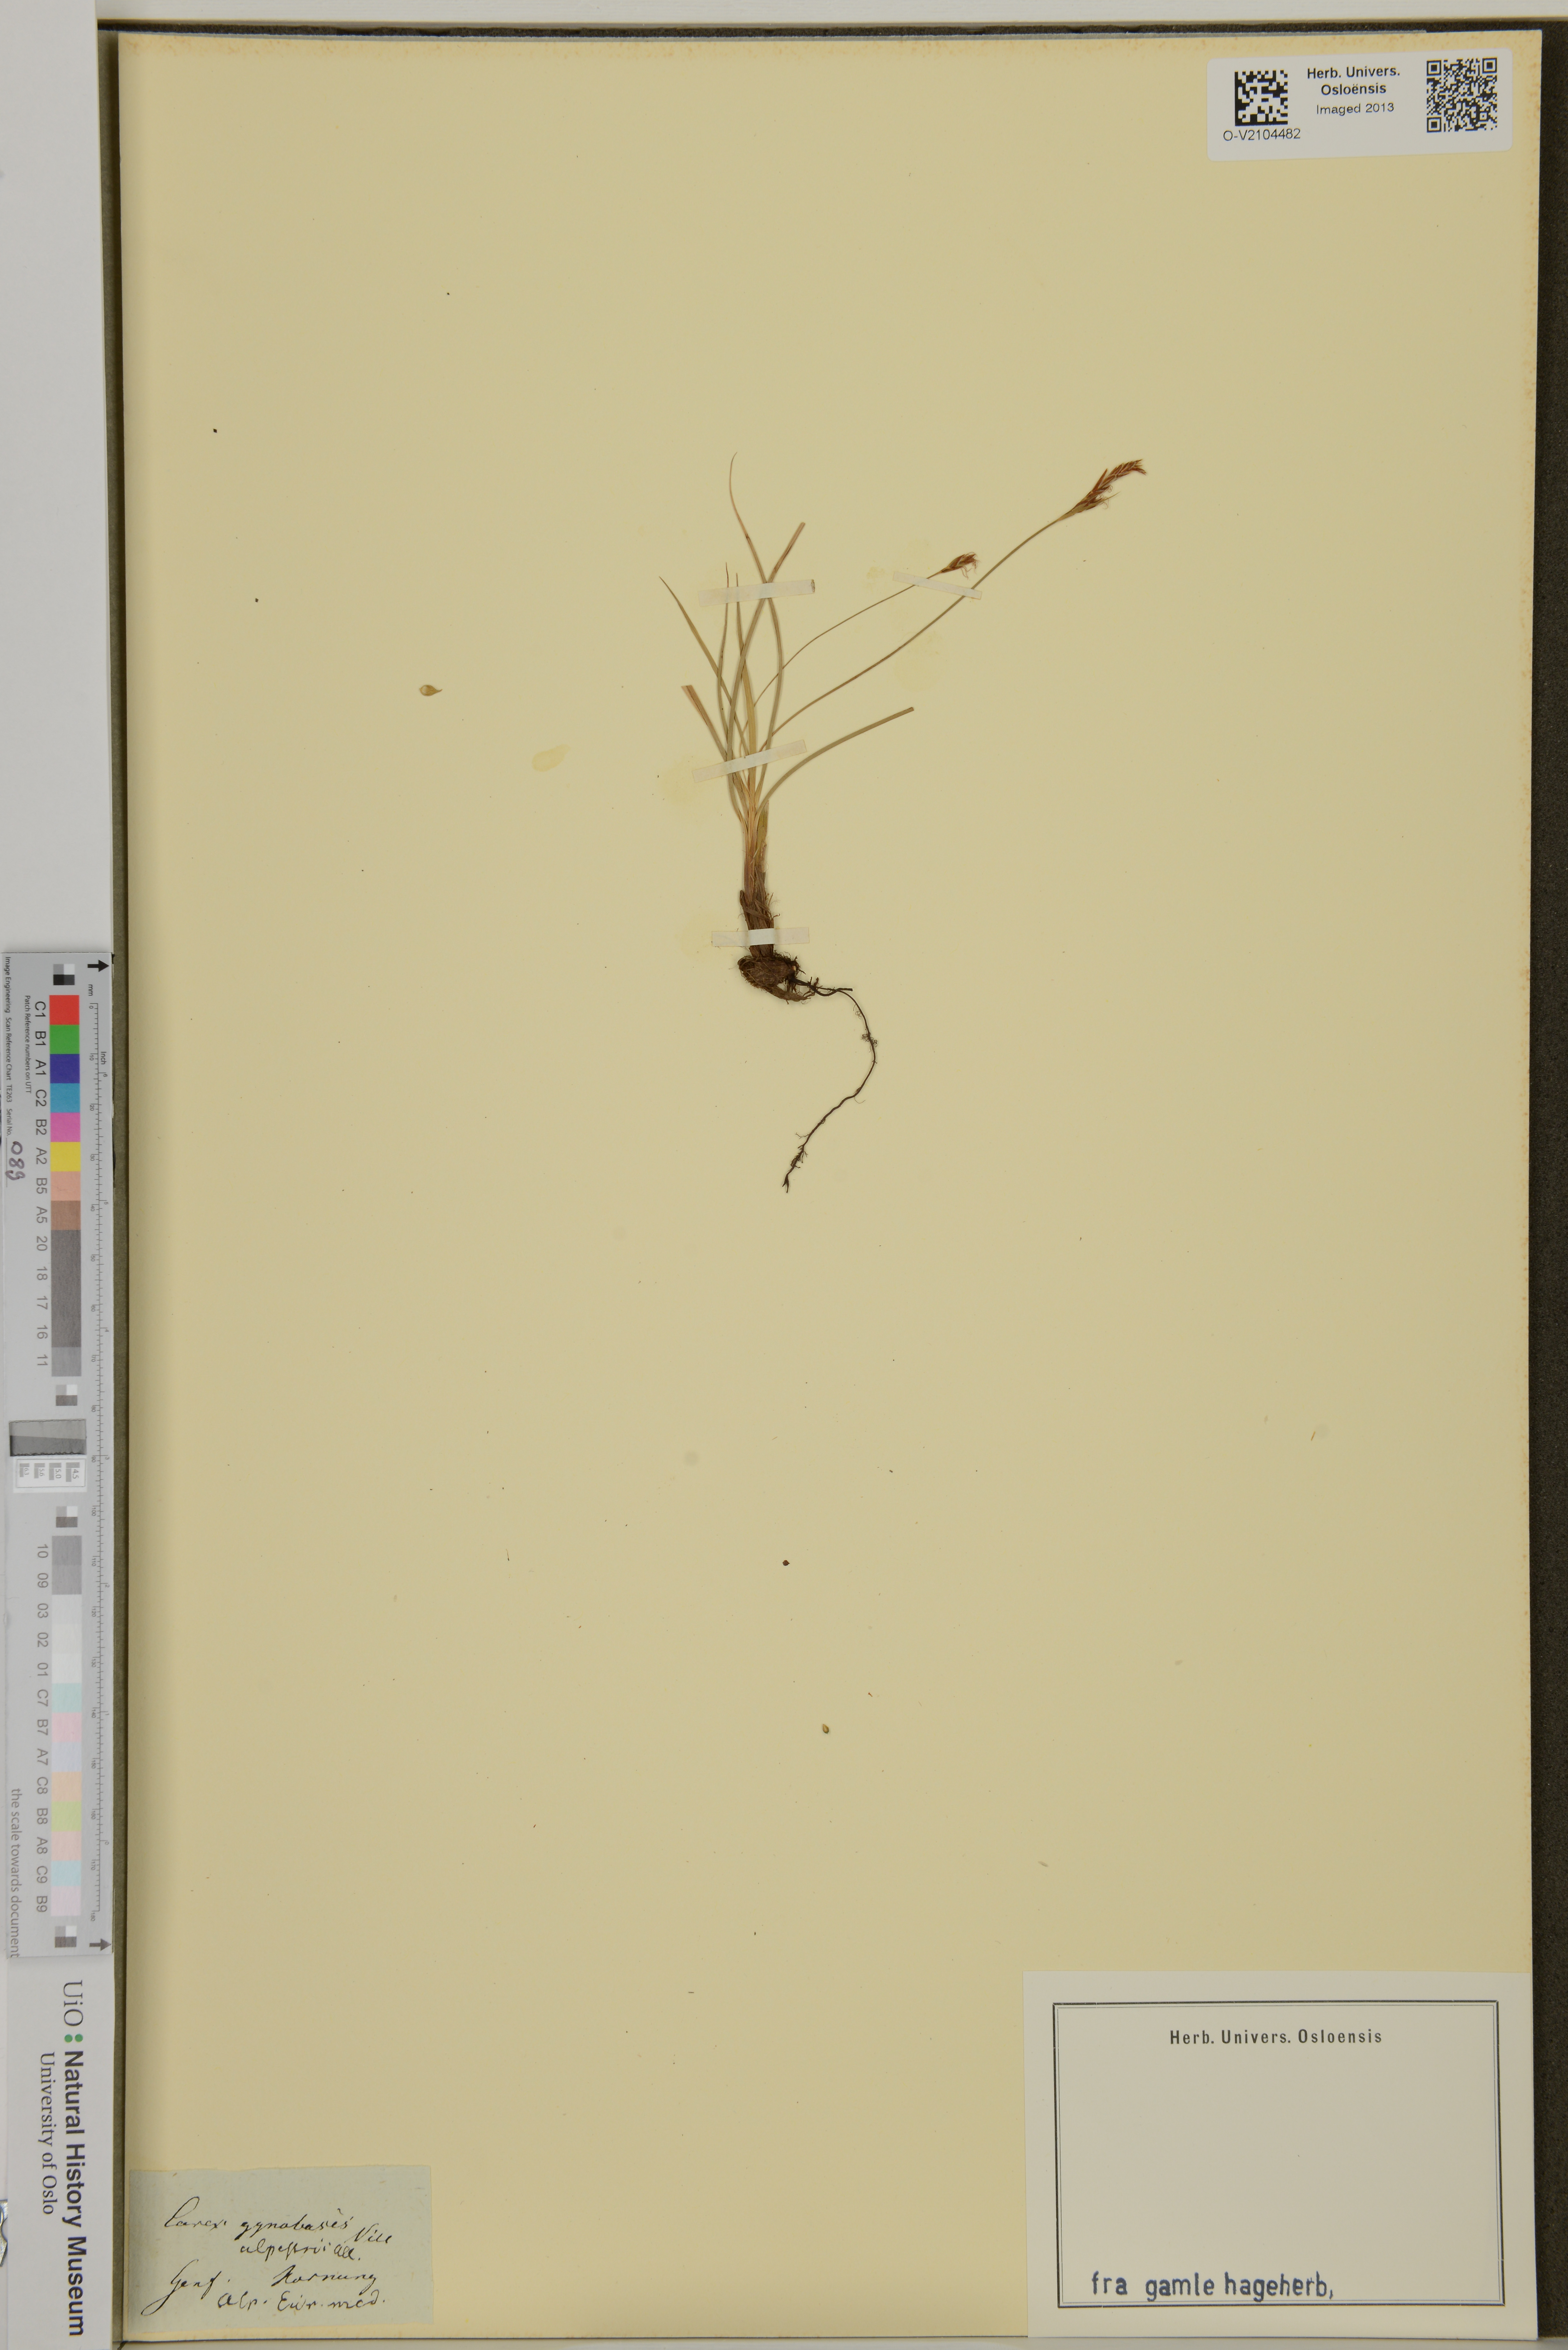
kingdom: Plantae
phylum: Tracheophyta
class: Liliopsida
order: Poales
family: Cyperaceae
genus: Carex
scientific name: Carex halleriana
